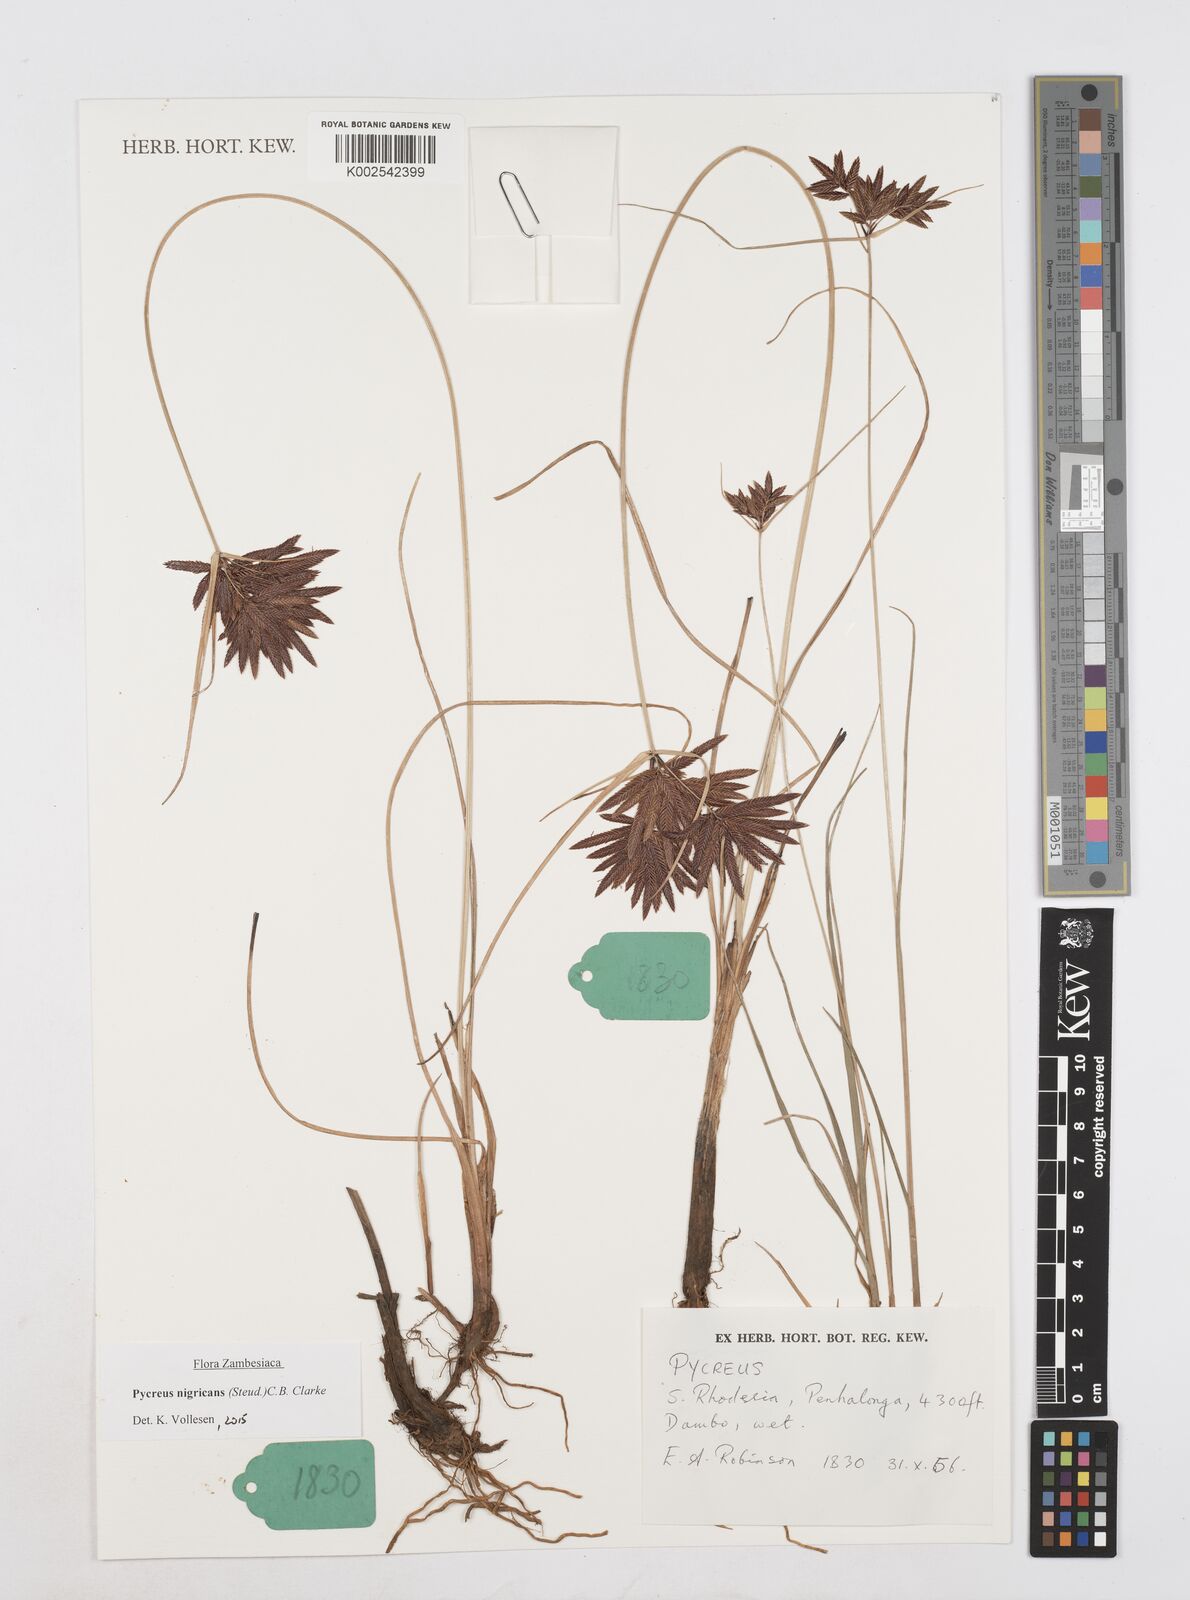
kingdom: Plantae
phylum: Tracheophyta
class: Liliopsida
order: Poales
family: Cyperaceae
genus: Cyperus
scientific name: Cyperus nigricans
